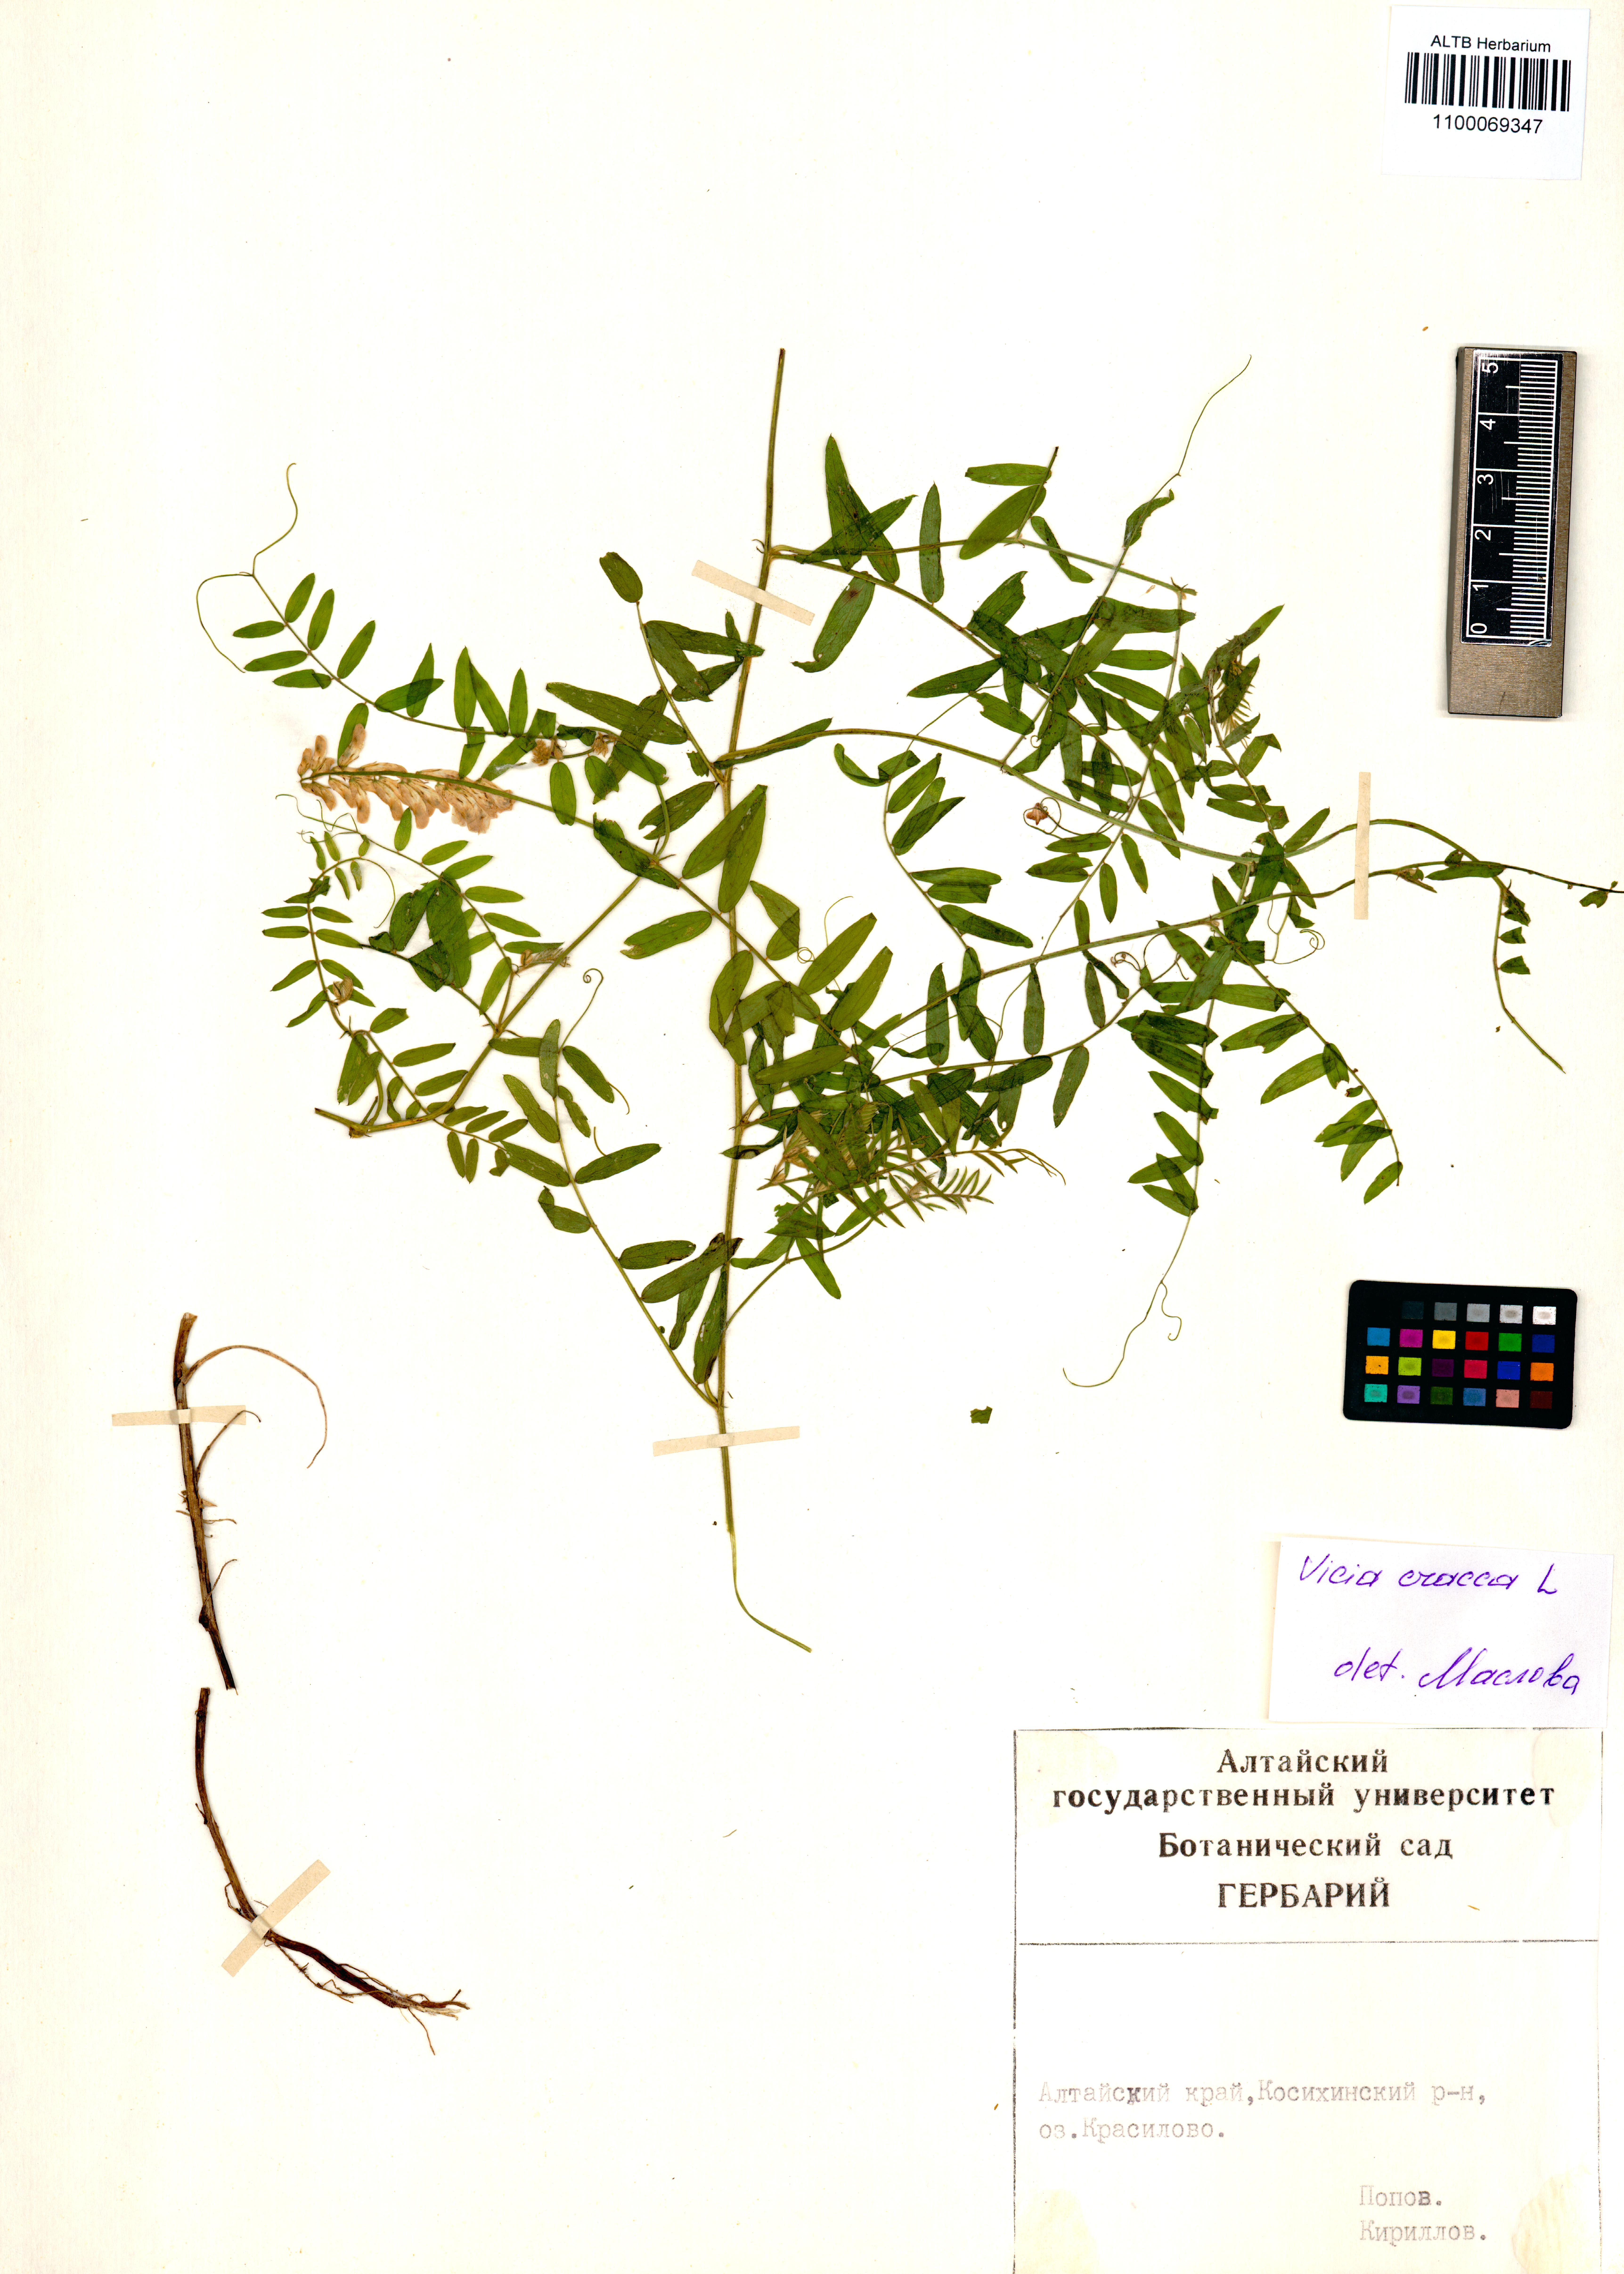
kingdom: Plantae
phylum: Tracheophyta
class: Magnoliopsida
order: Fabales
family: Fabaceae
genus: Vicia
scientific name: Vicia cracca
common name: Bird vetch
